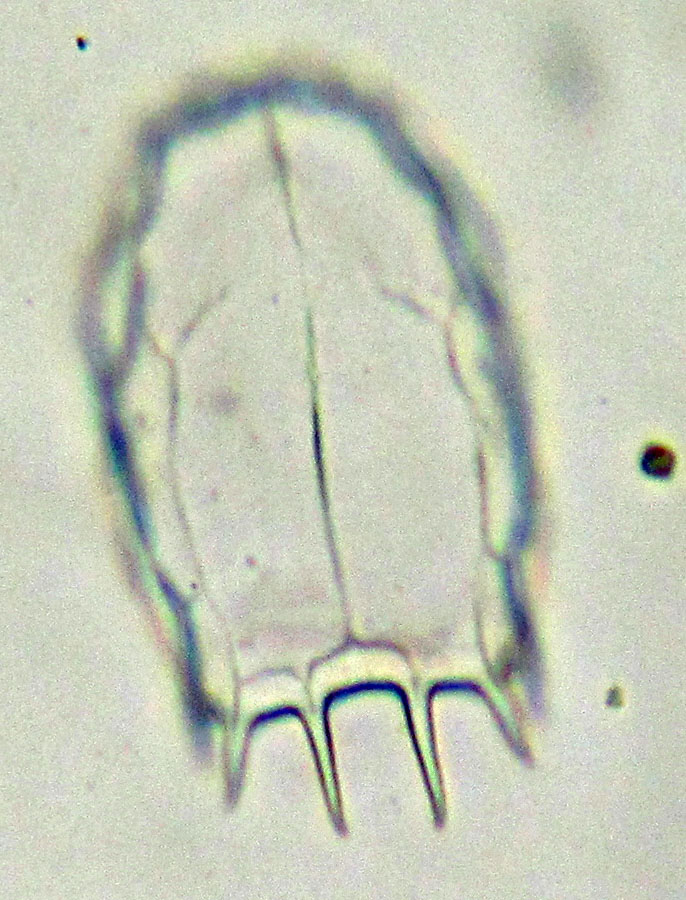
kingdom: Animalia
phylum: Rotifera
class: Eurotatoria
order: Ploima
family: Brachionidae
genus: Keratella
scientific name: Keratella cruciformis
